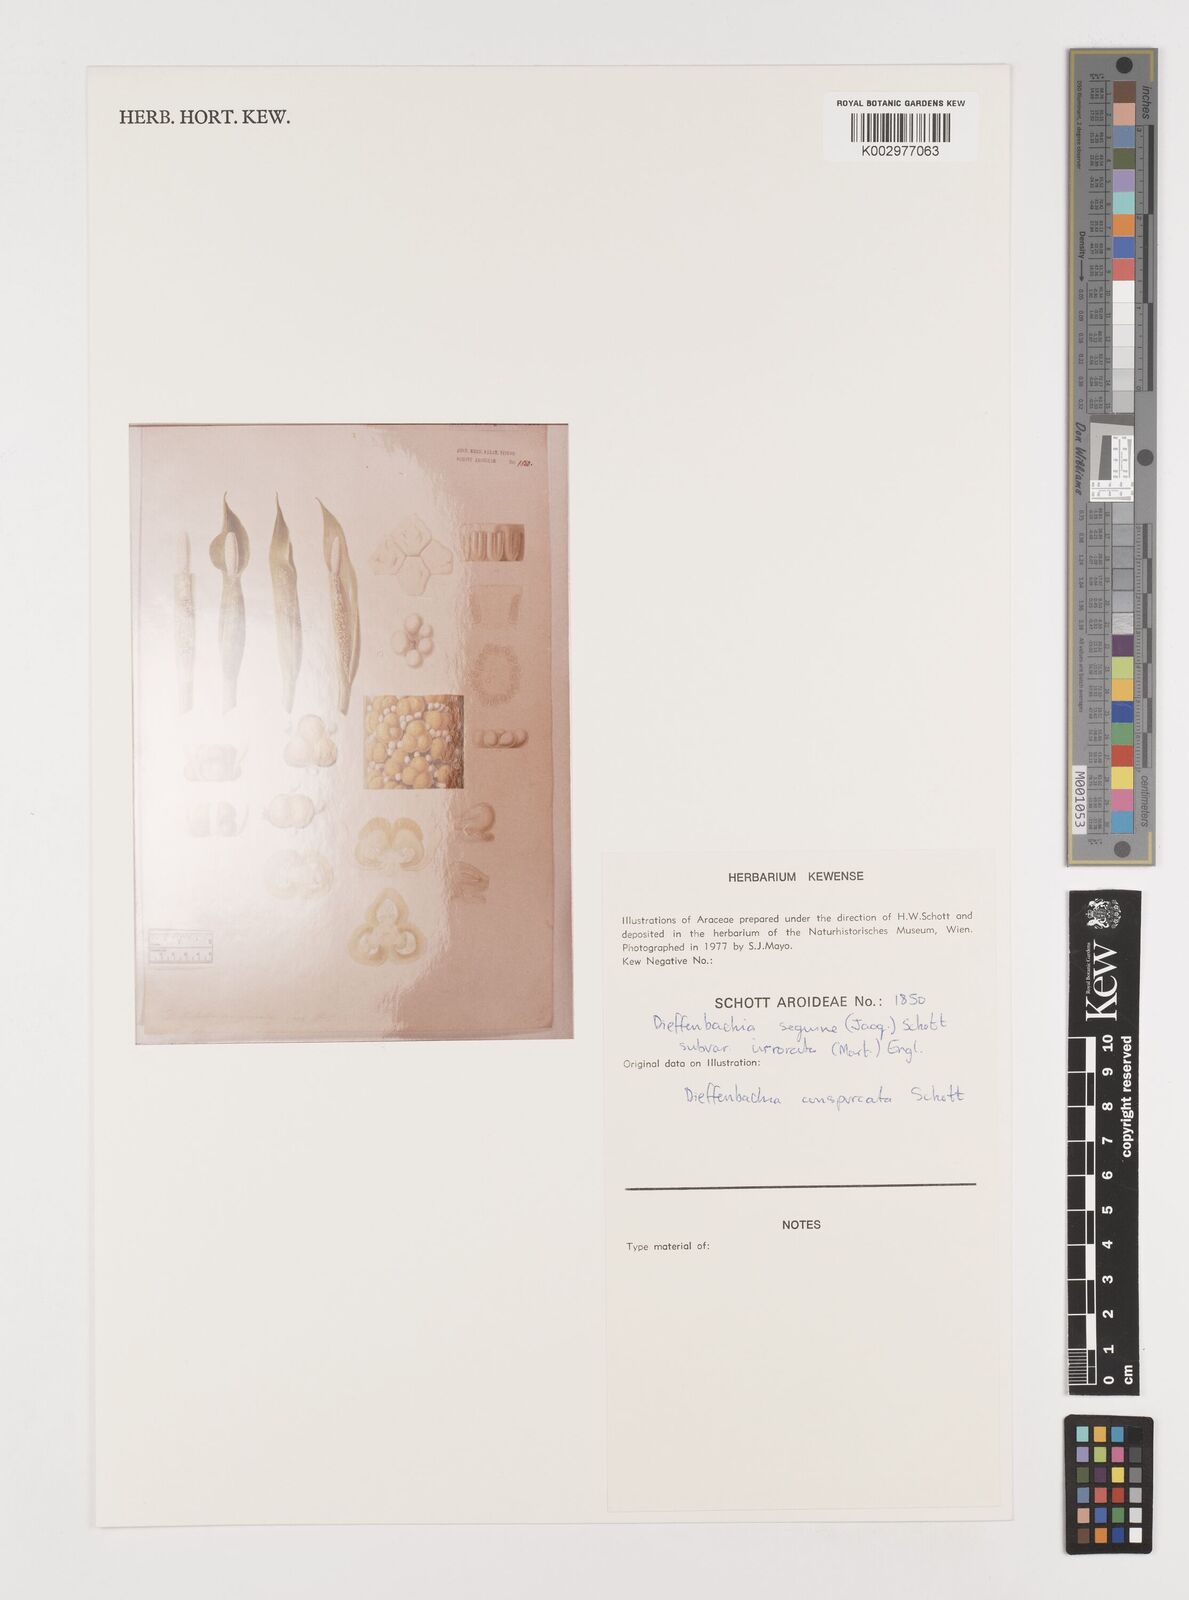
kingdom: Plantae
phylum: Tracheophyta
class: Liliopsida
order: Alismatales
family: Araceae
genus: Dieffenbachia
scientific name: Dieffenbachia seguine
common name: Dumbcane
